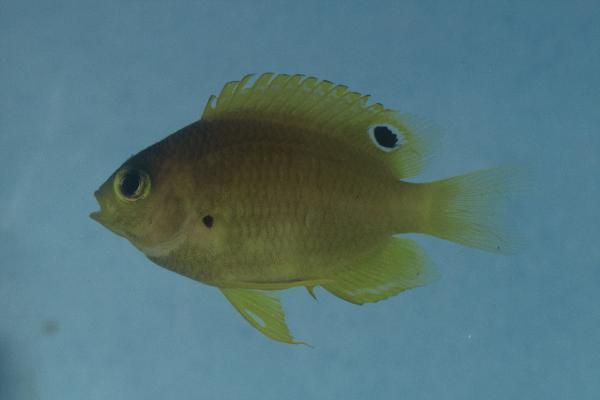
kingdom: Animalia
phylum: Chordata
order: Perciformes
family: Pomacentridae
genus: Pomacentrus
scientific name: Pomacentrus amboinensis
